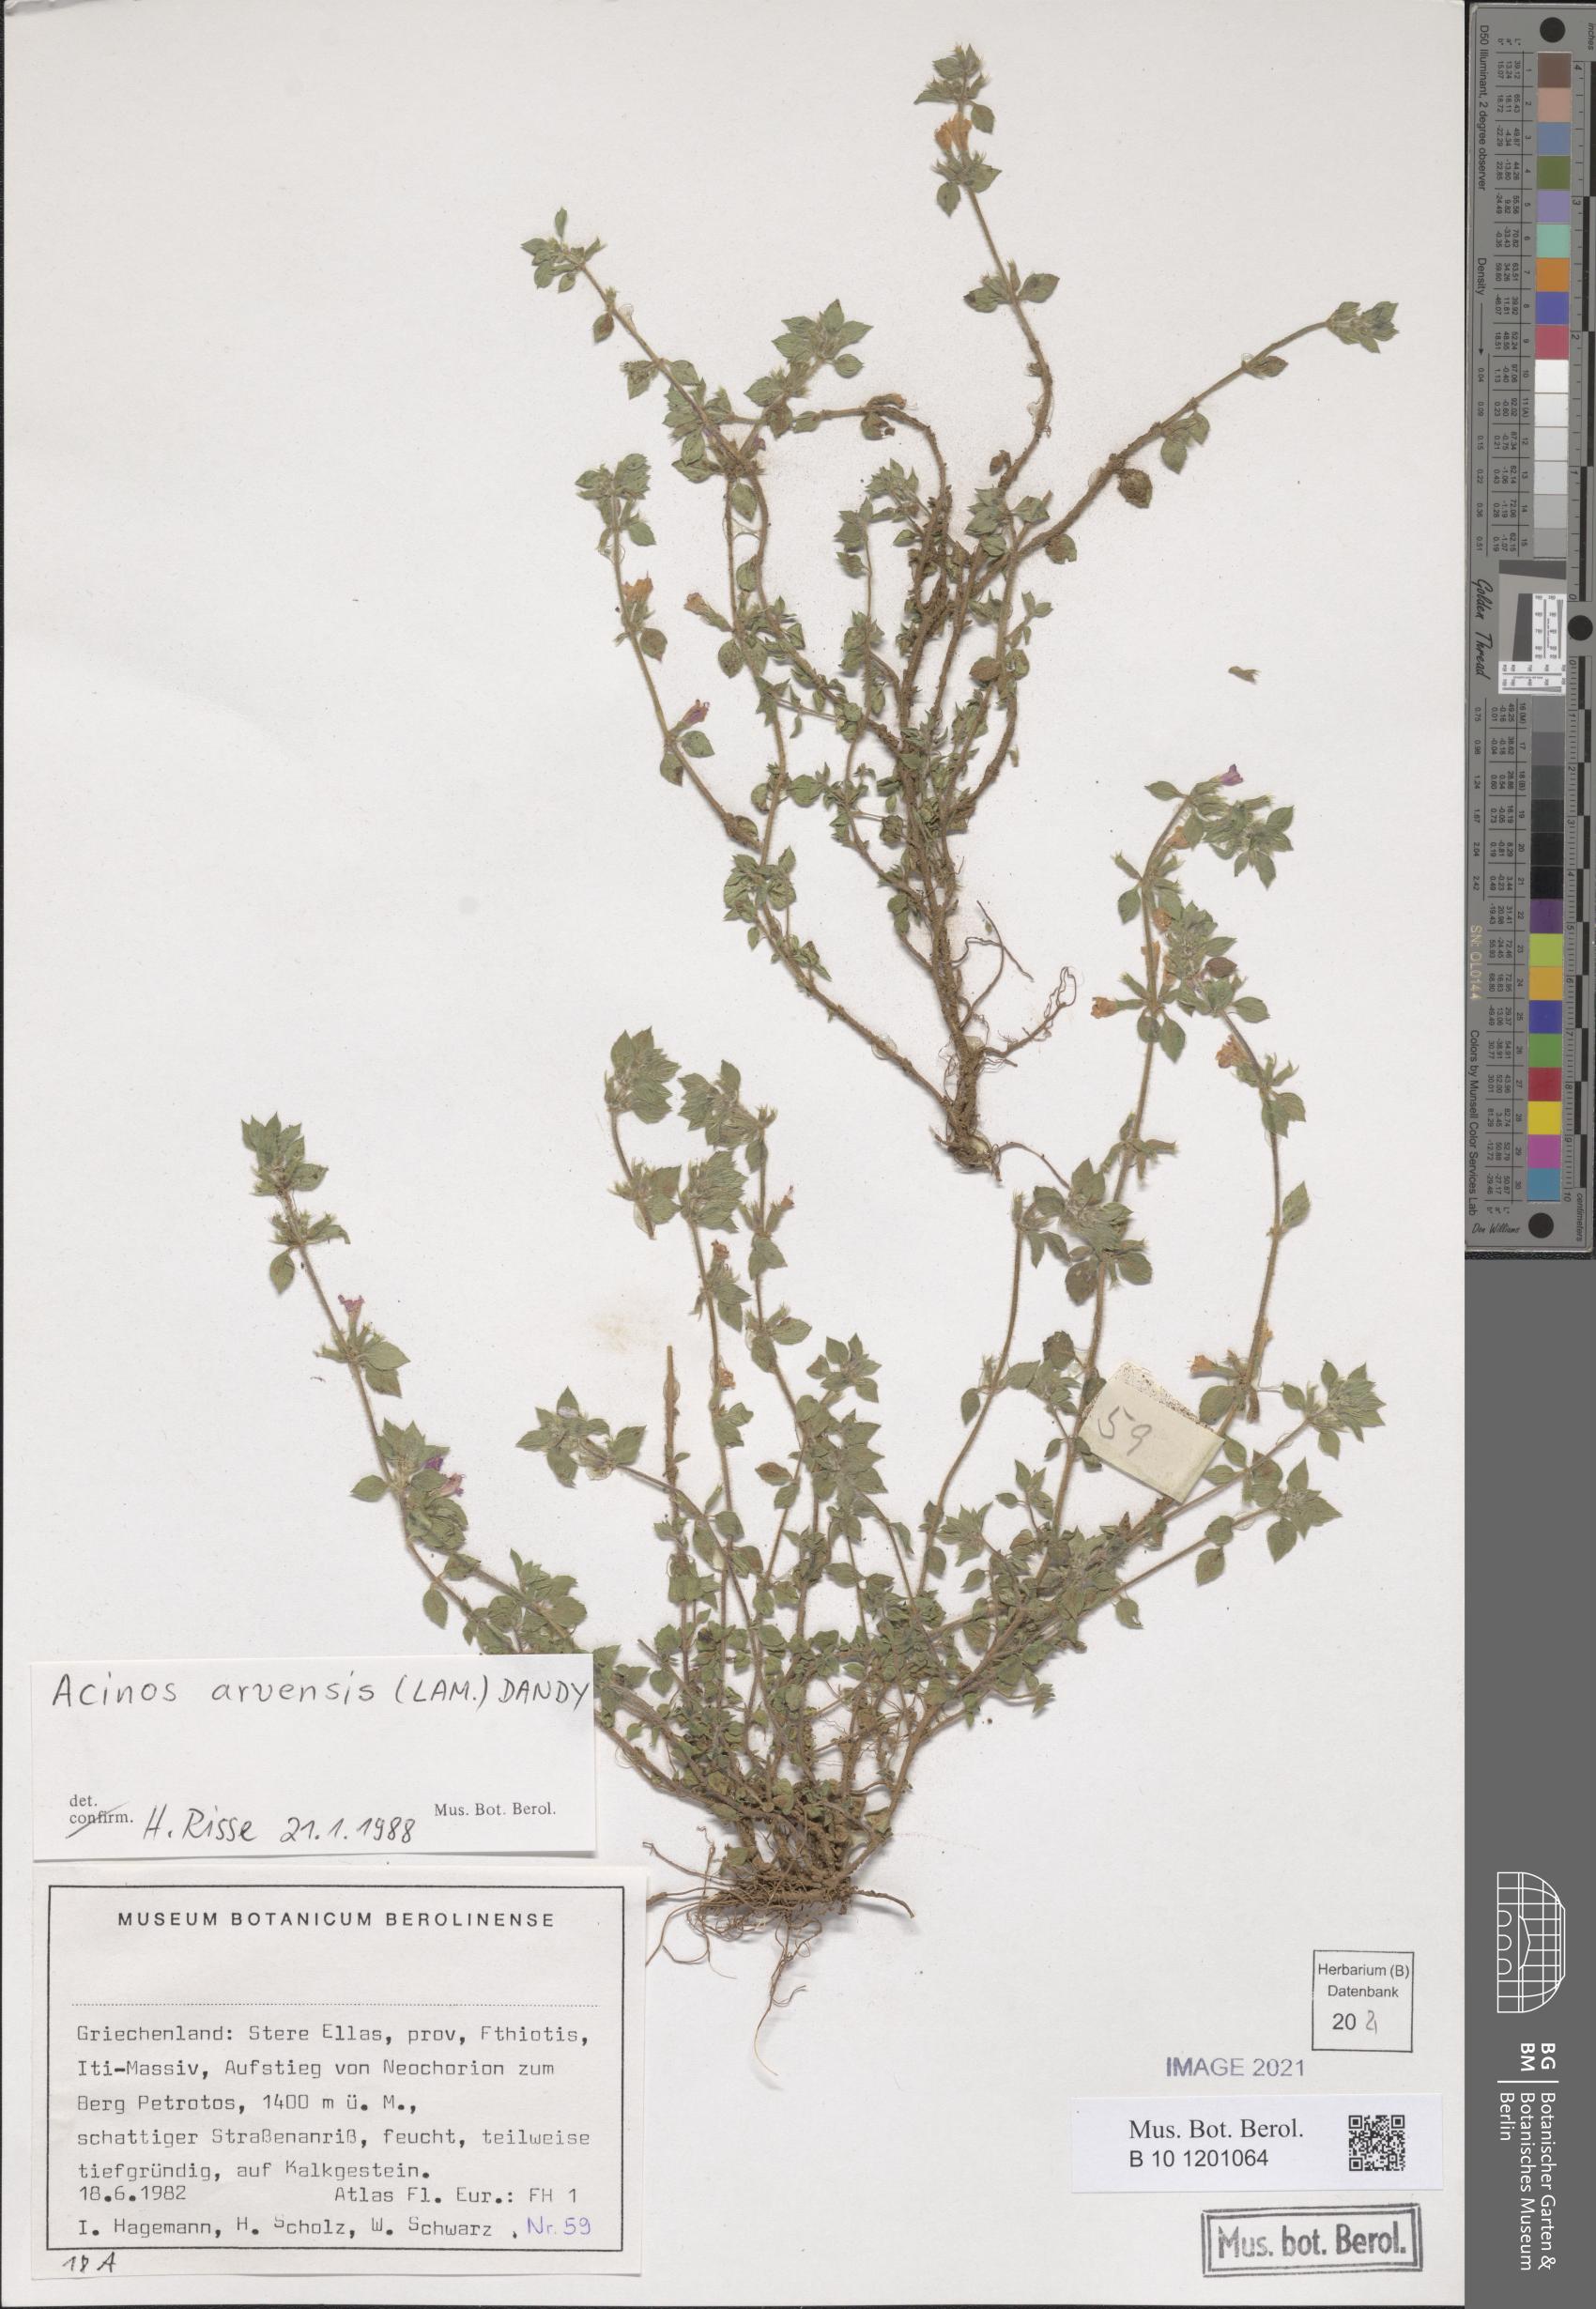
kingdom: Plantae
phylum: Tracheophyta
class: Magnoliopsida
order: Lamiales
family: Lamiaceae
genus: Clinopodium
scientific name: Clinopodium acinos
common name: Basil thyme
